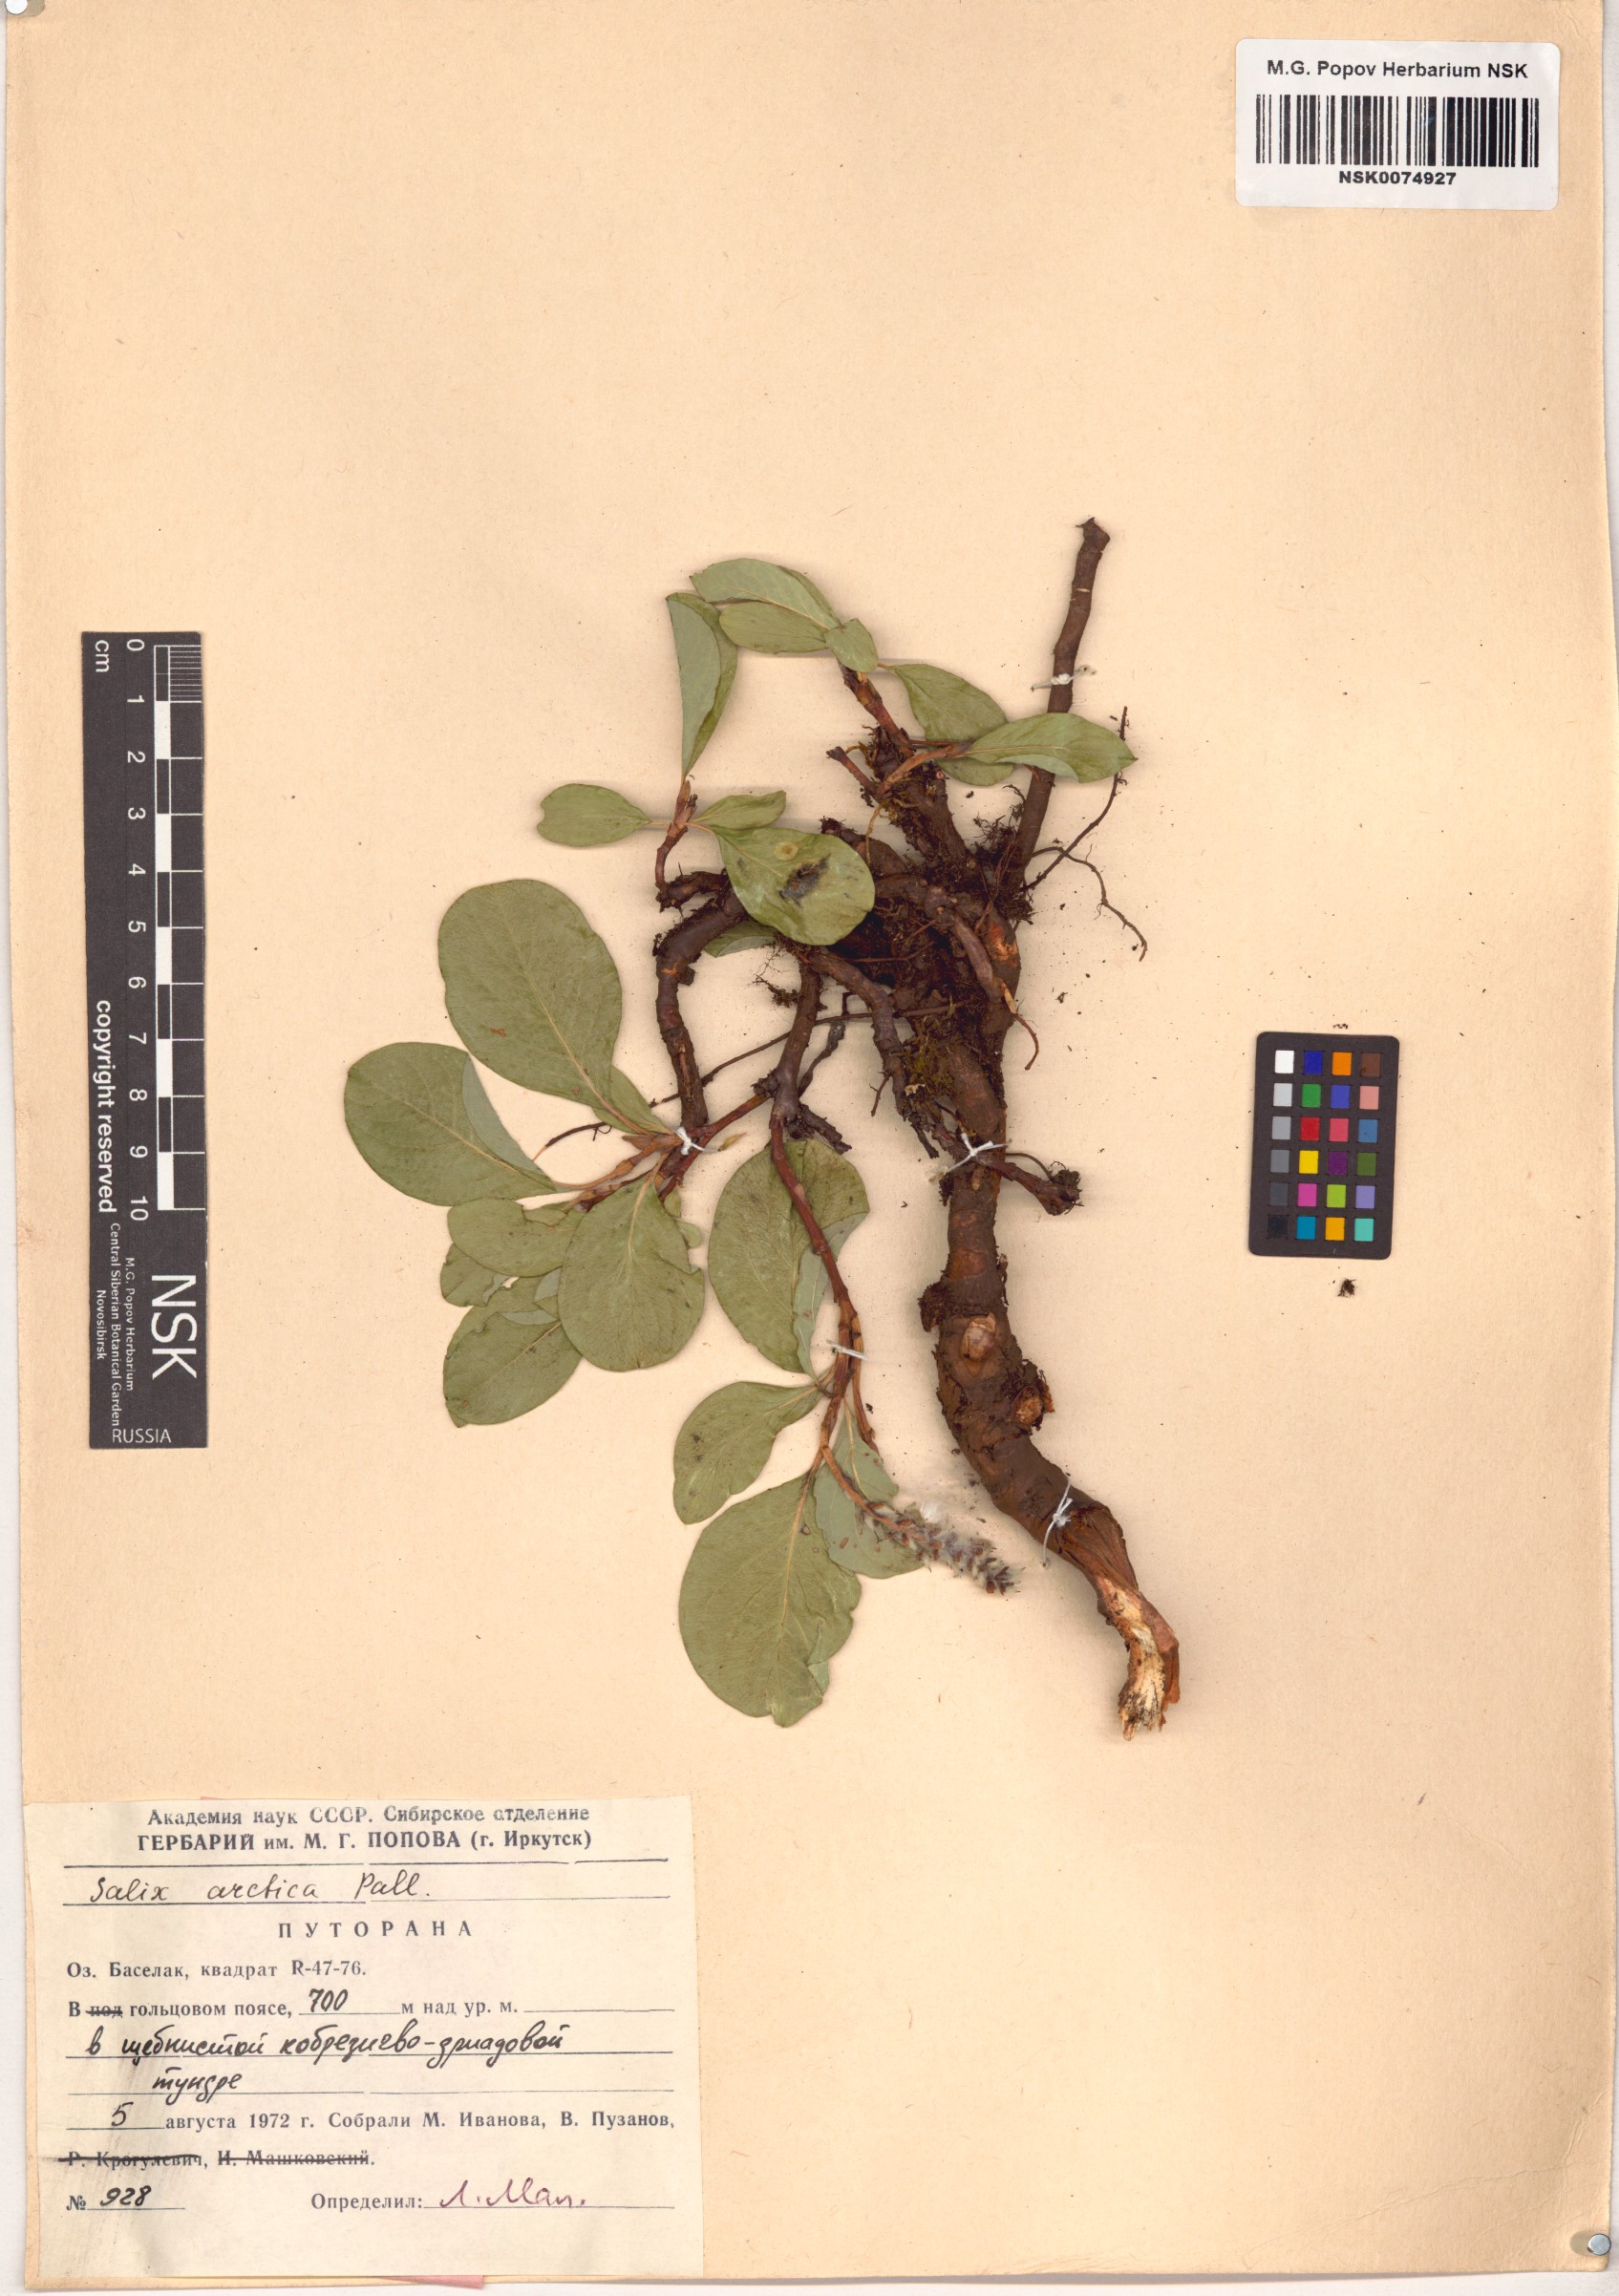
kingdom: Plantae
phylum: Tracheophyta
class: Magnoliopsida
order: Malpighiales
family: Salicaceae
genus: Salix
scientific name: Salix arctica
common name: Arctic willow
